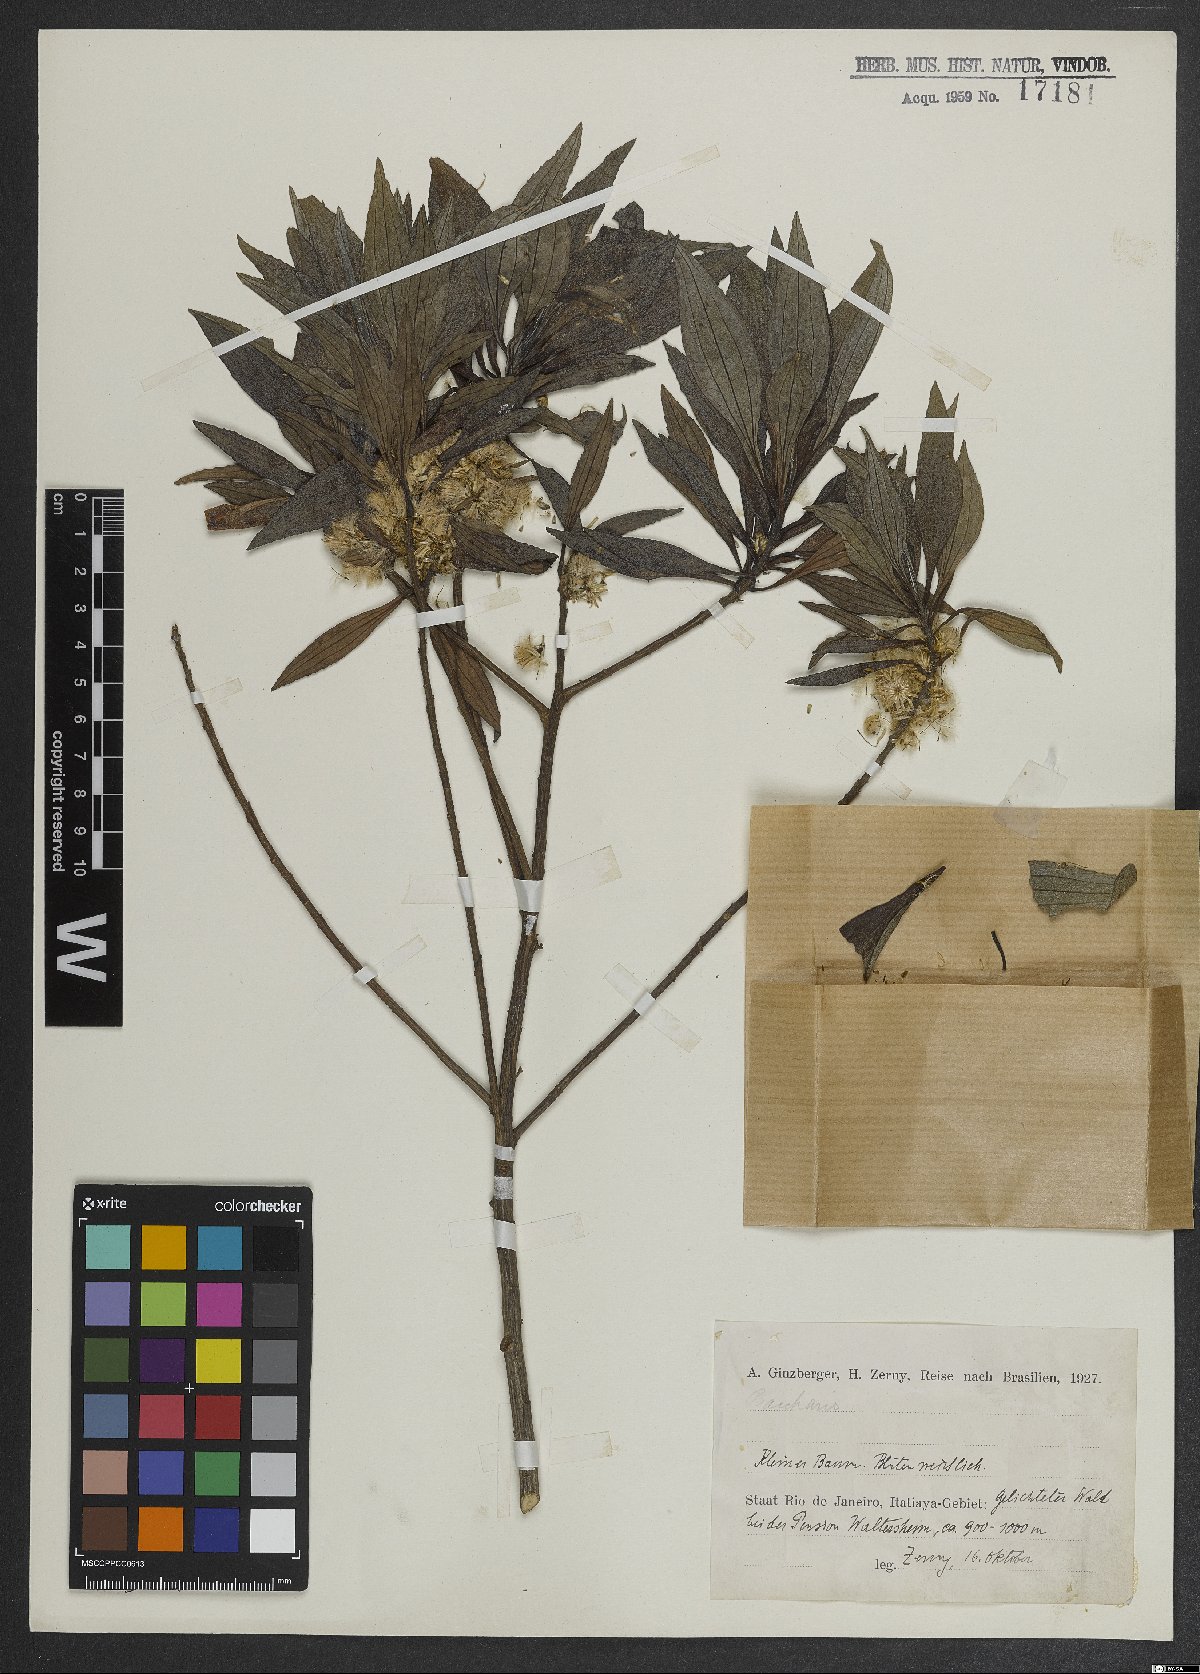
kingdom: Plantae
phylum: Tracheophyta
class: Magnoliopsida
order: Asterales
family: Asteraceae
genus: Baccharis
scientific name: Baccharis
